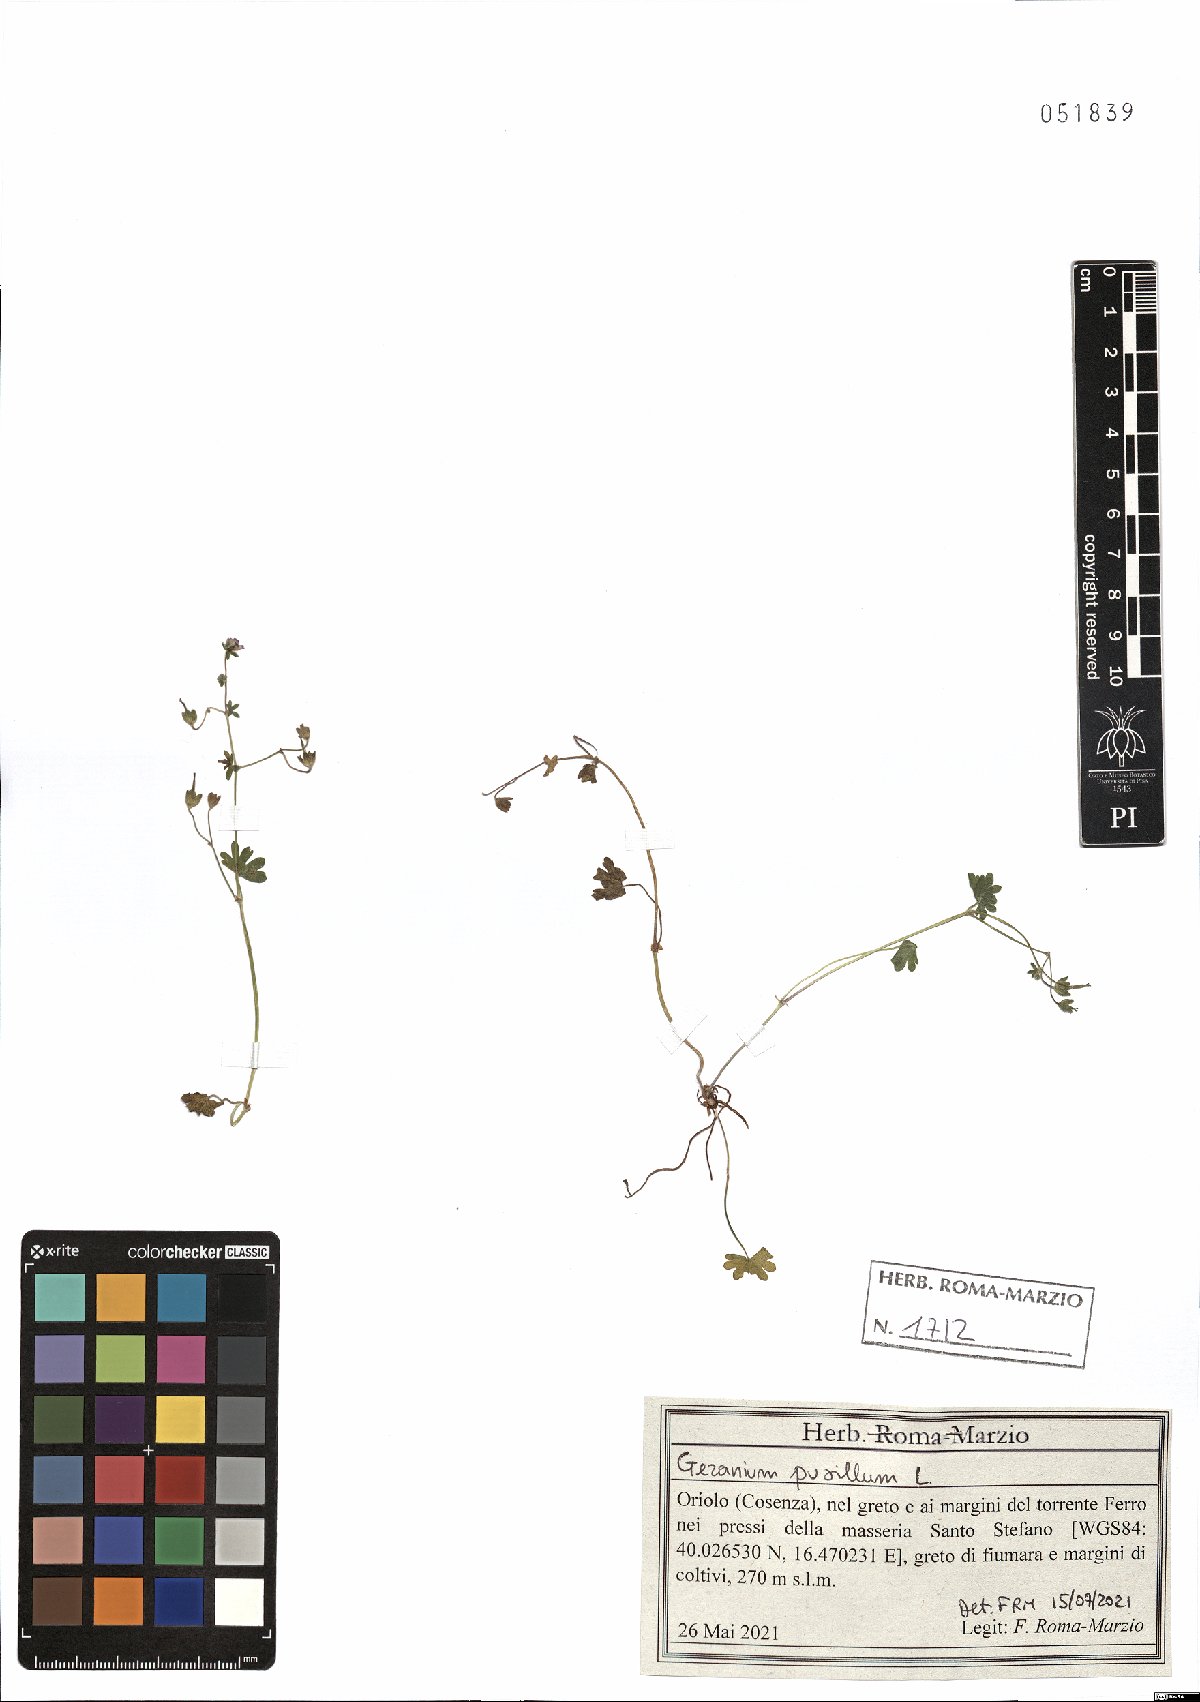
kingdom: Plantae
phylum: Tracheophyta
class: Magnoliopsida
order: Geraniales
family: Geraniaceae
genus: Geranium
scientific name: Geranium pusillum
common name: Small geranium
